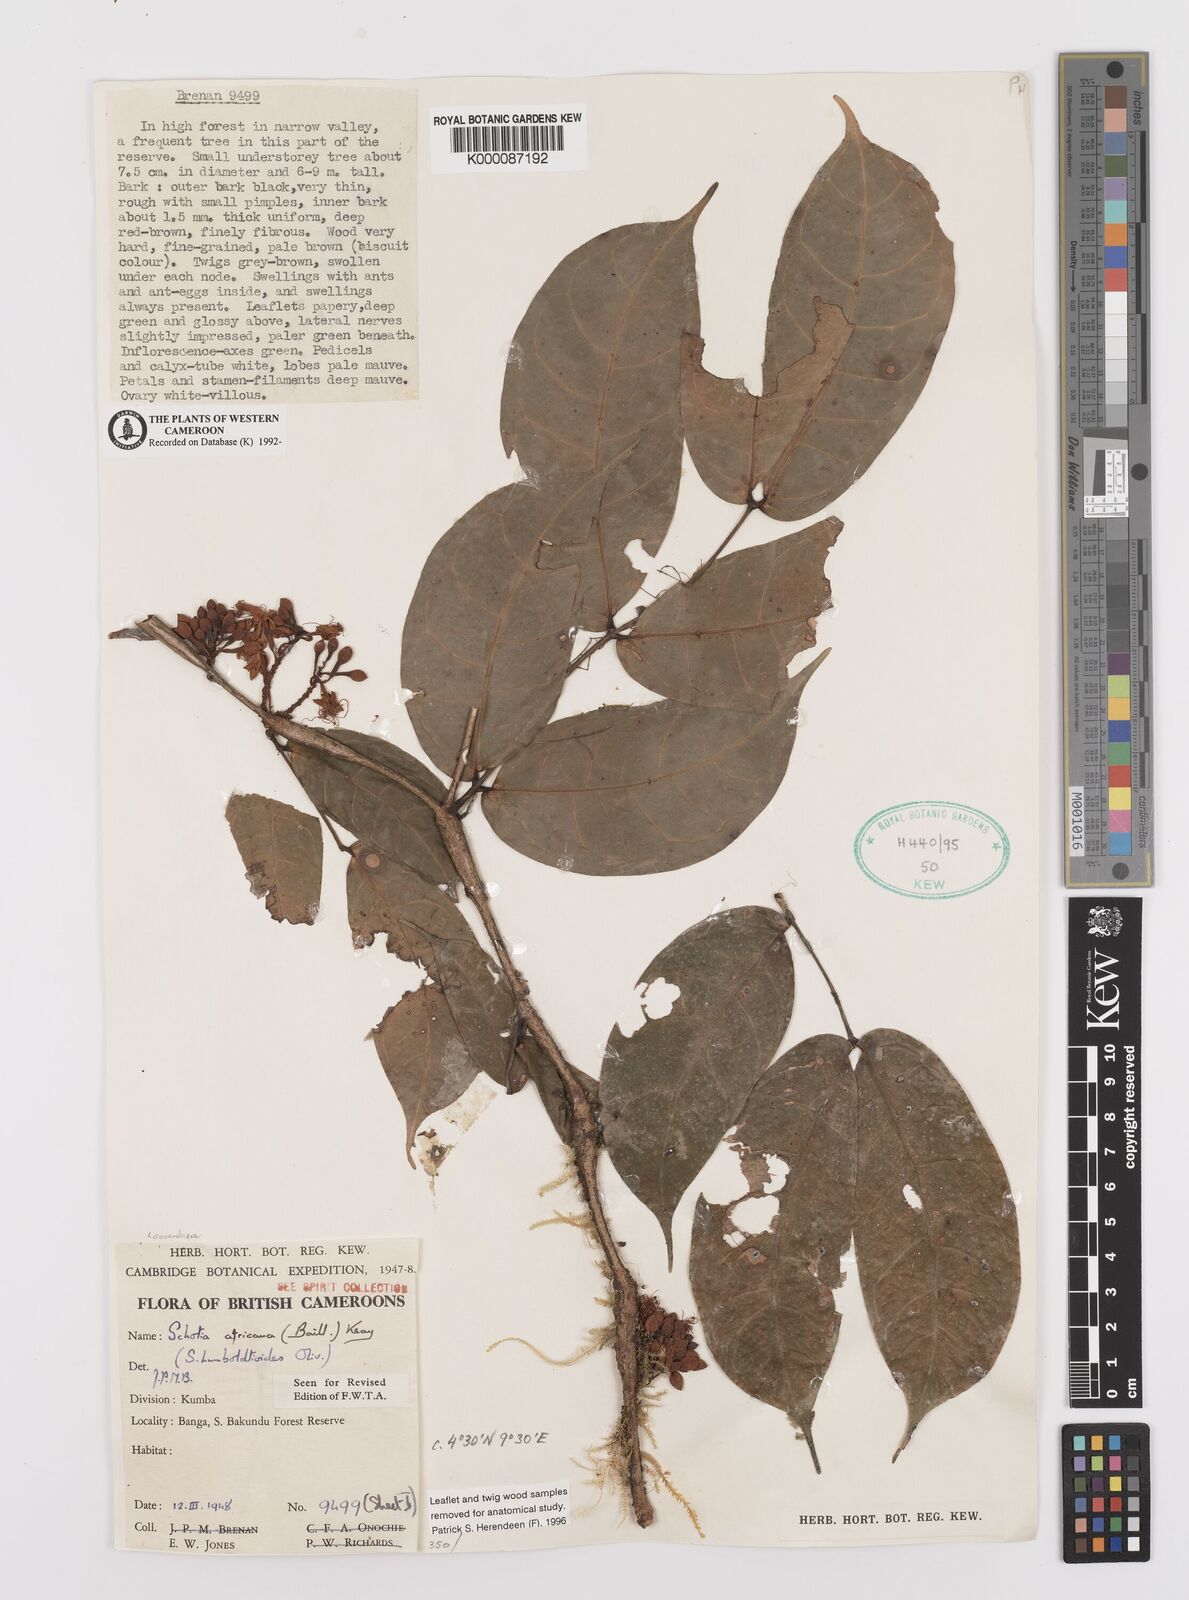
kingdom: Plantae
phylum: Tracheophyta
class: Magnoliopsida
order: Fabales
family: Fabaceae
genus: Schotia
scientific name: Schotia
